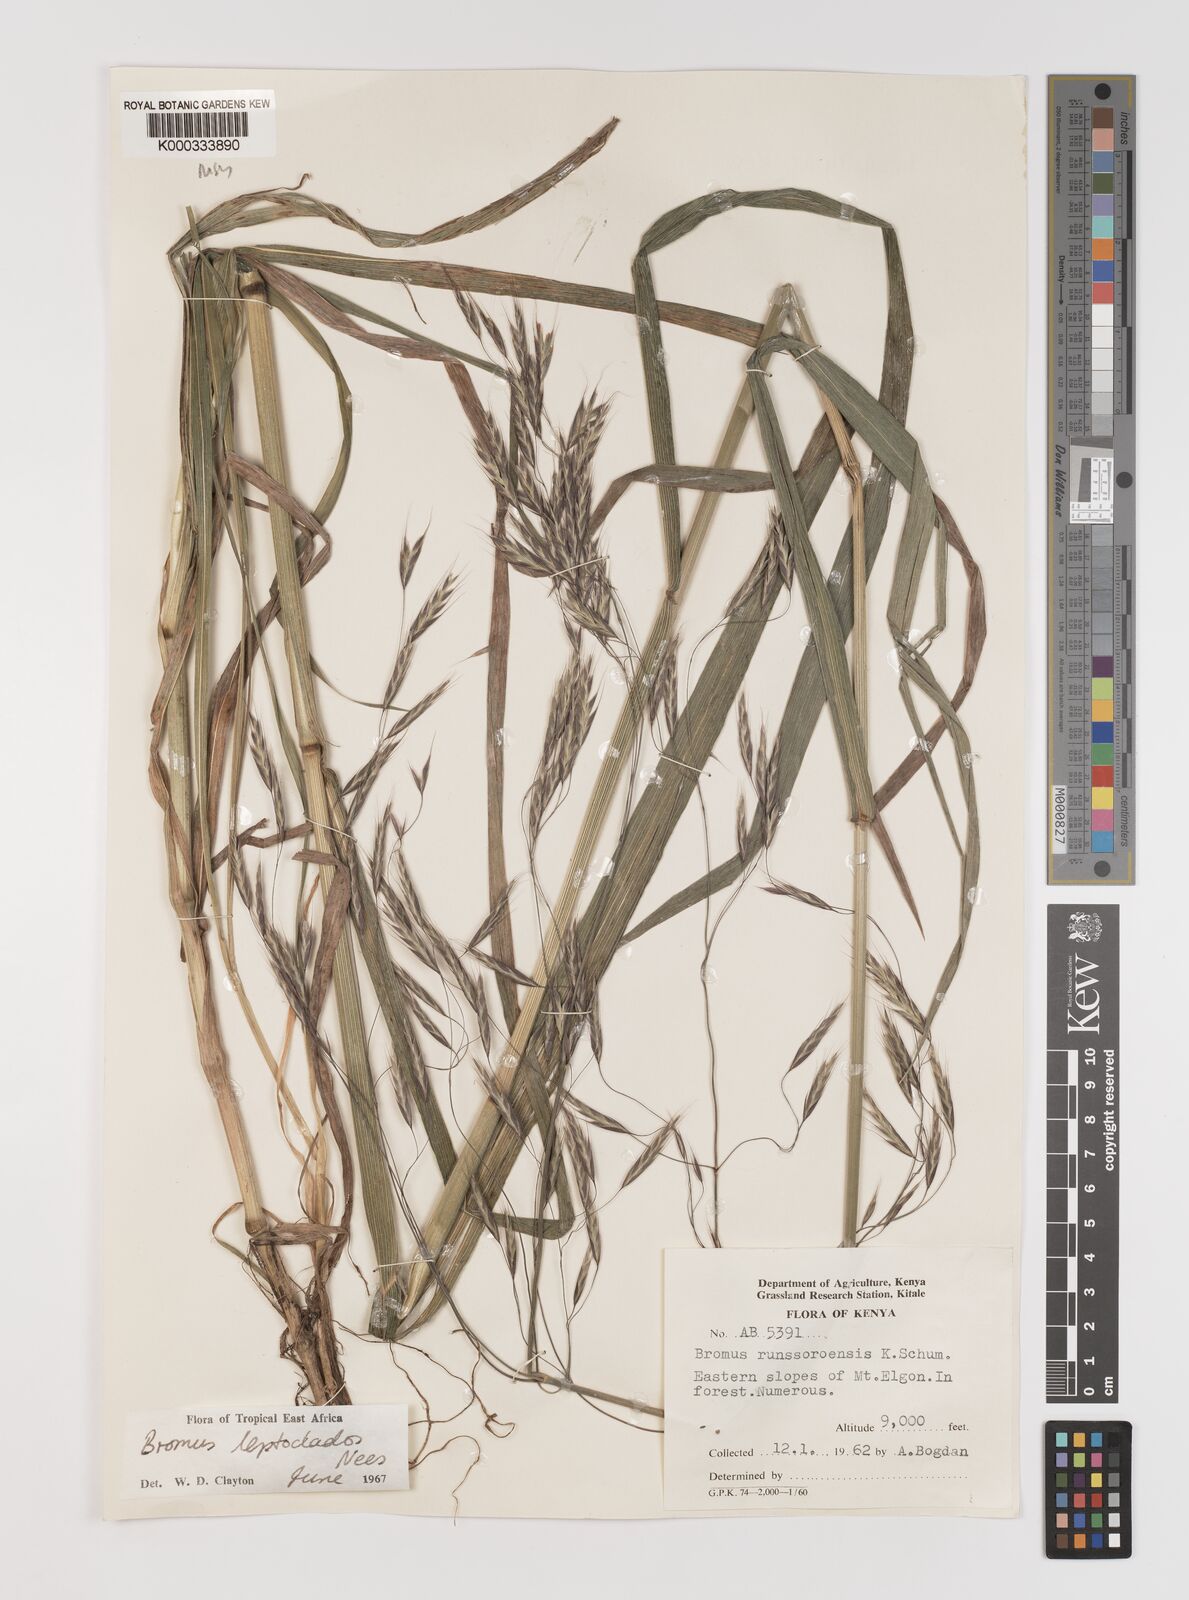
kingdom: Plantae
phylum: Tracheophyta
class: Liliopsida
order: Poales
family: Poaceae
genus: Bromus
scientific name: Bromus leptoclados
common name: Mountain bromegrass
